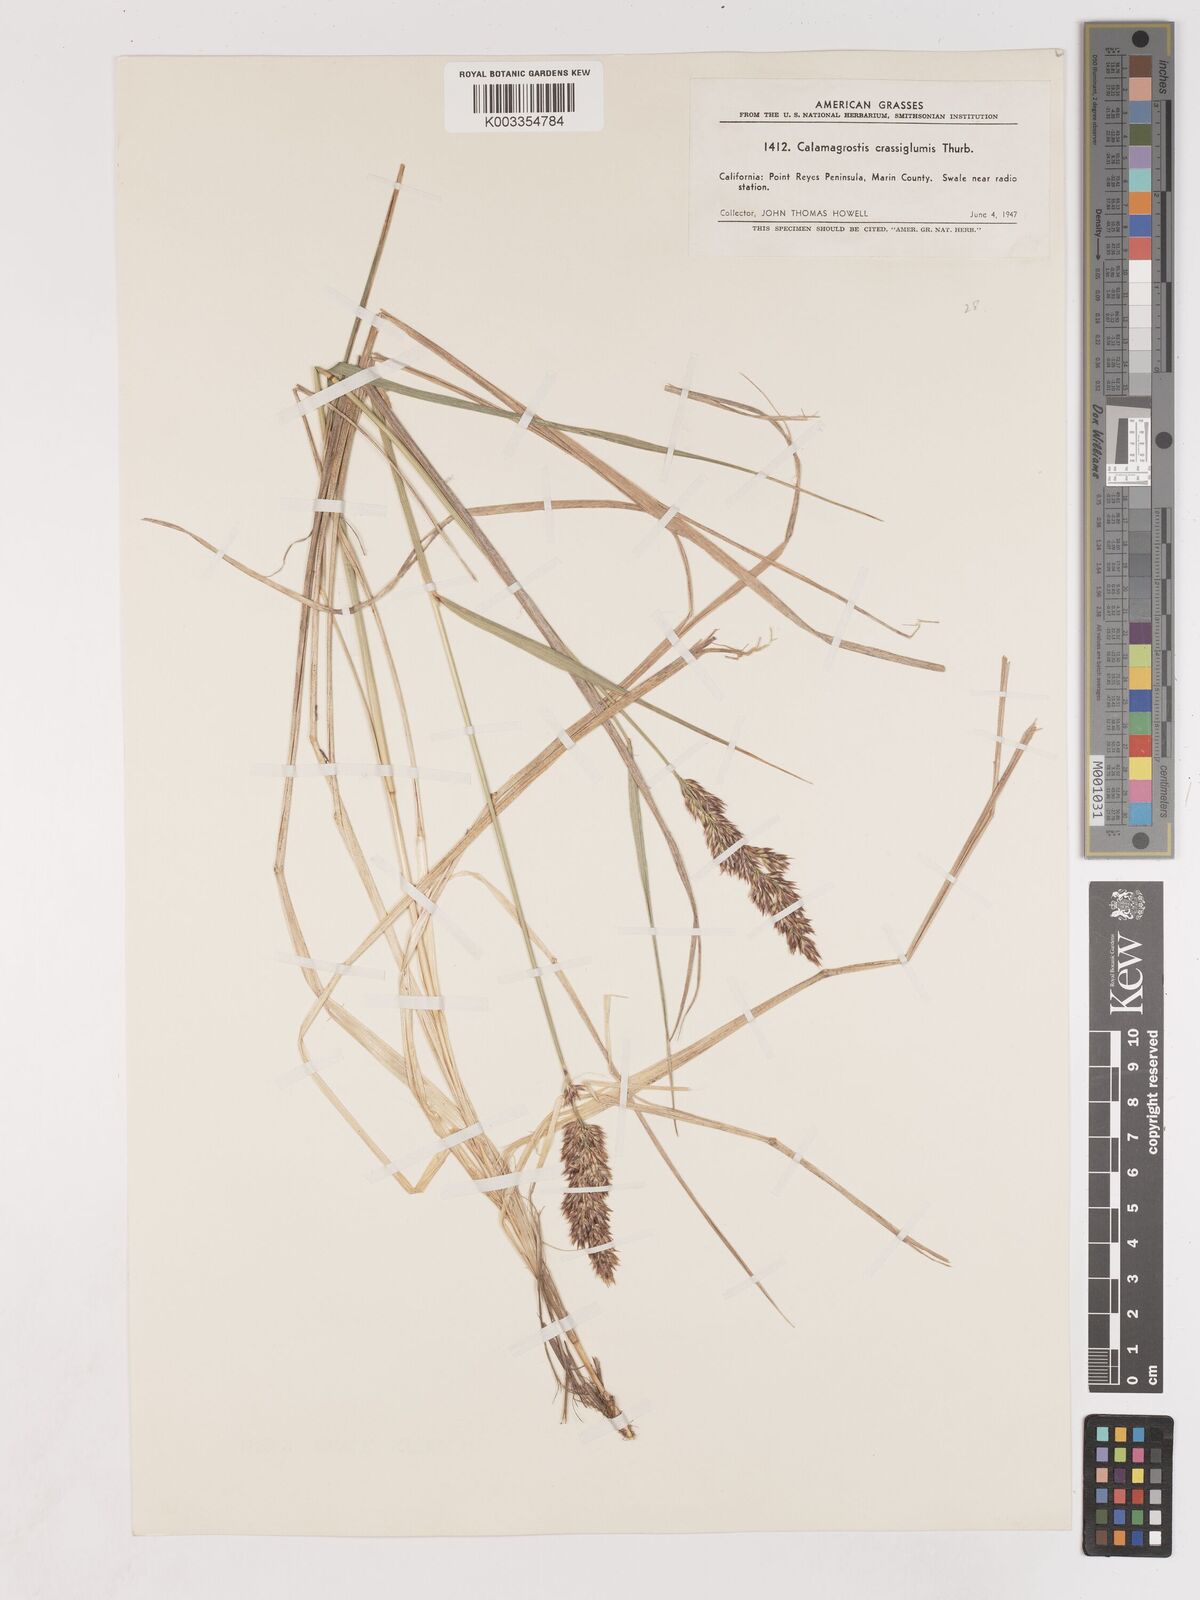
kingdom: Plantae
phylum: Tracheophyta
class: Liliopsida
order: Poales
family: Poaceae
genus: Cinnagrostis
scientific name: Cinnagrostis recta
